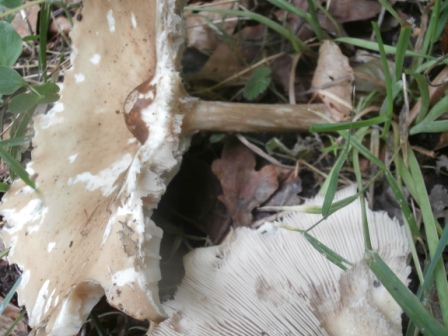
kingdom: Fungi
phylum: Basidiomycota
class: Agaricomycetes
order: Agaricales
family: Tricholomataceae
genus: Melanoleuca
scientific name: Melanoleuca grammopodia
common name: stribestokket munkehat
